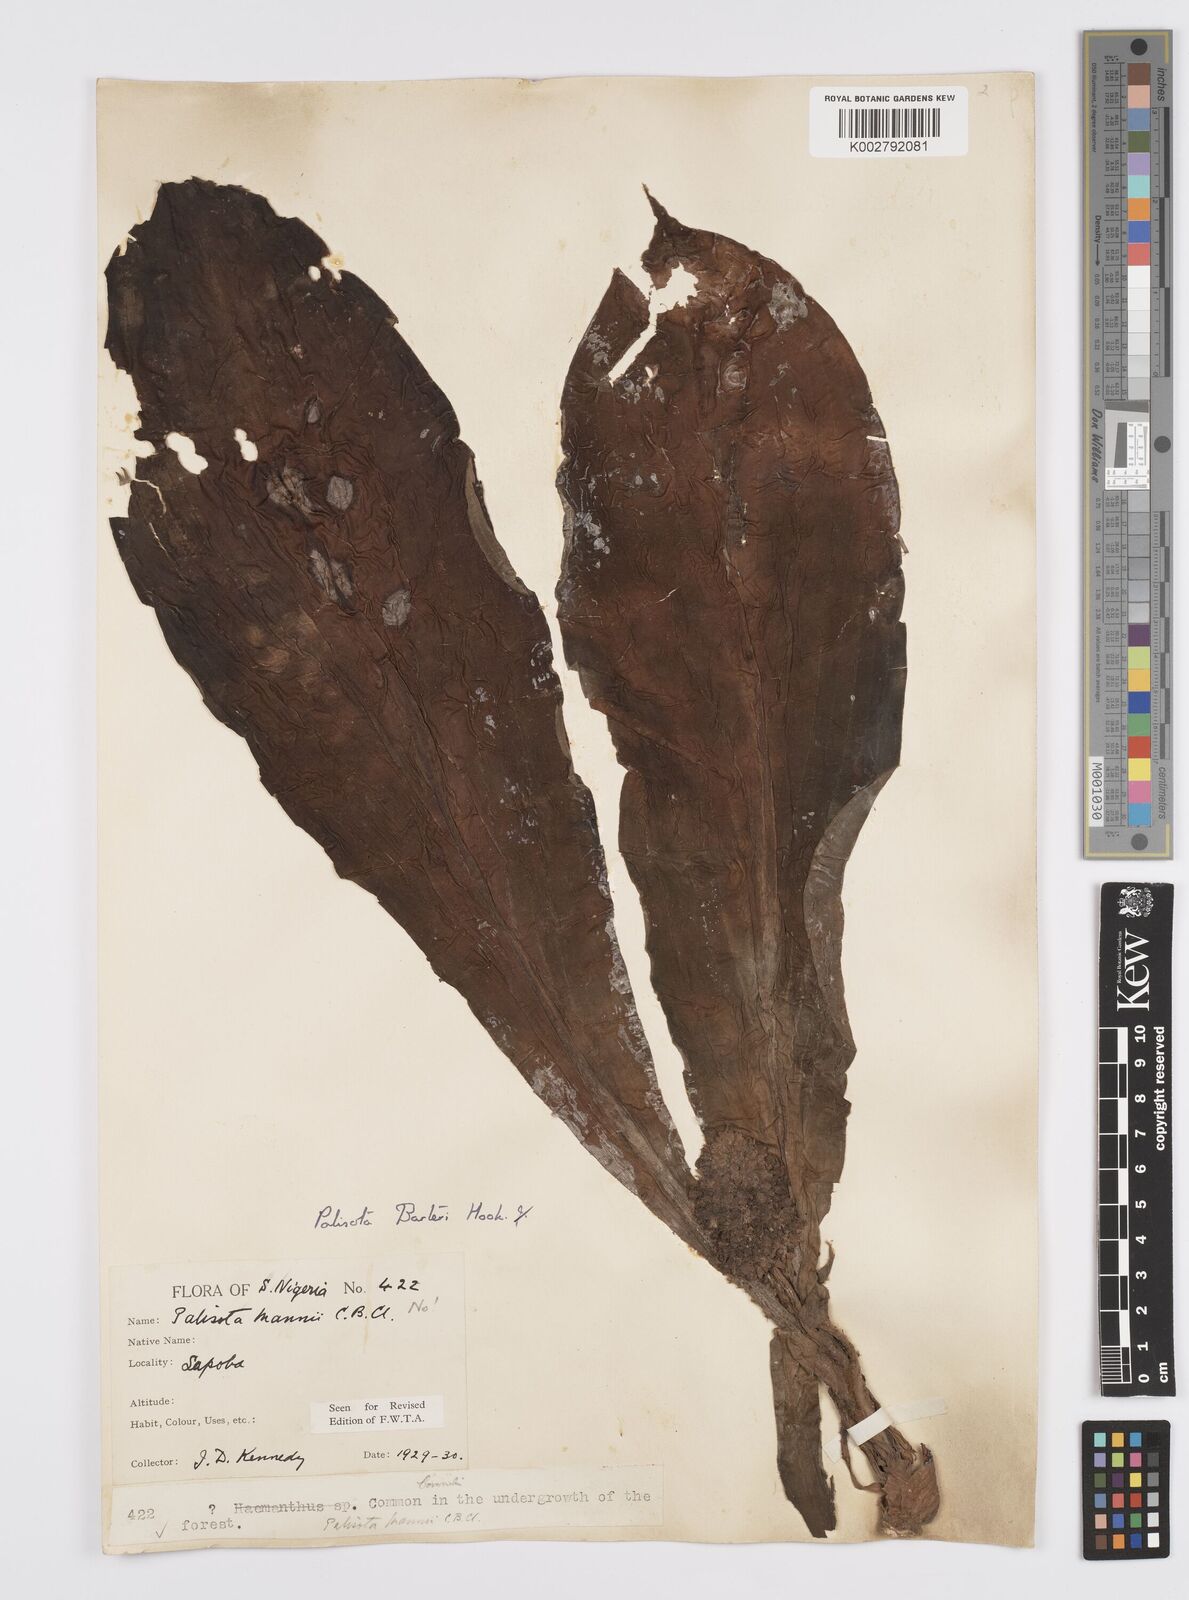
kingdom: Plantae
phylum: Tracheophyta
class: Liliopsida
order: Commelinales
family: Commelinaceae
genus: Palisota
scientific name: Palisota barteri
